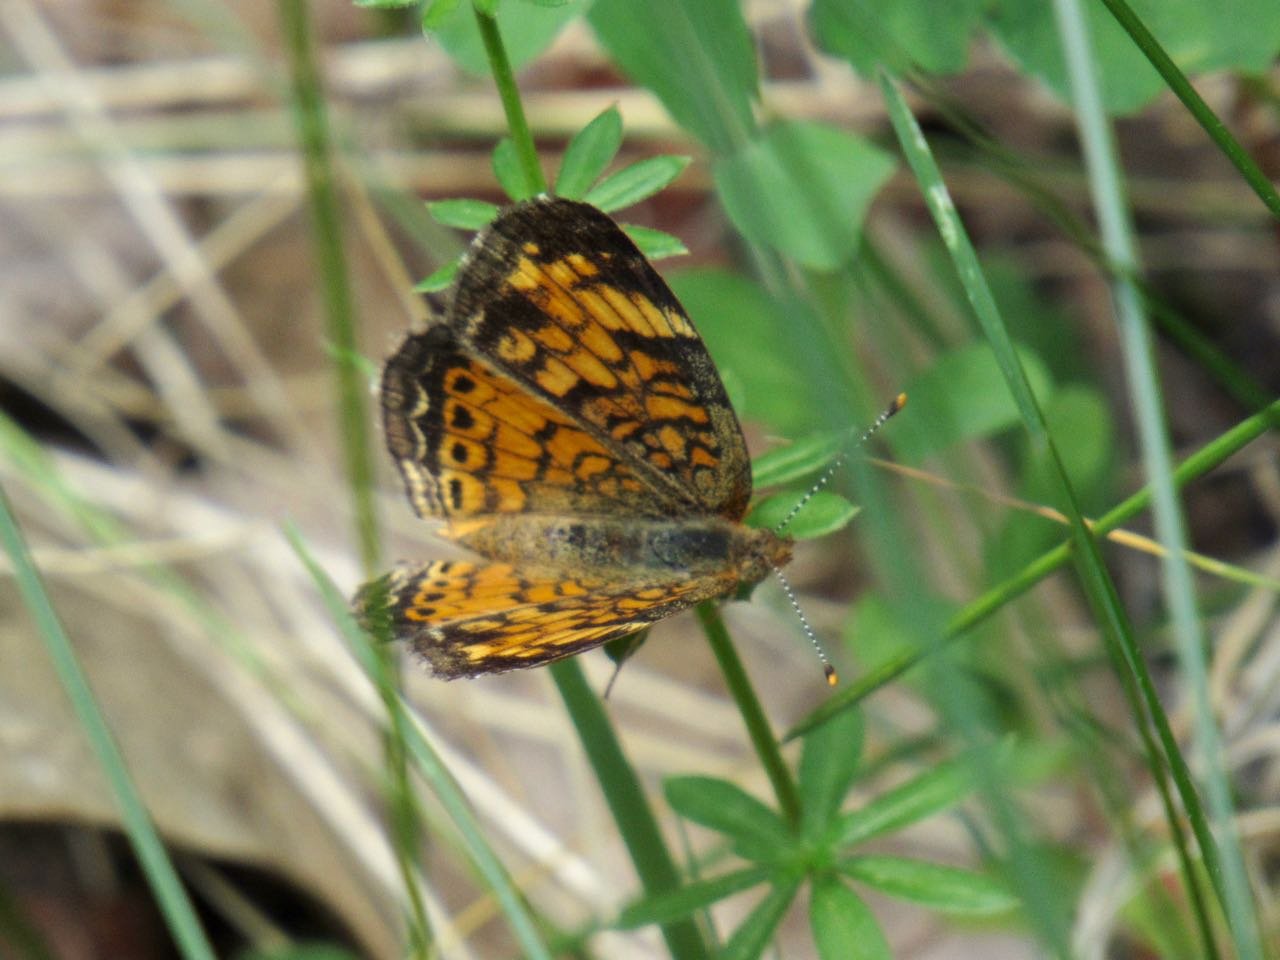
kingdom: Animalia
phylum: Arthropoda
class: Insecta
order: Lepidoptera
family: Nymphalidae
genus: Phyciodes
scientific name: Phyciodes tharos
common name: Pearl Crescent
